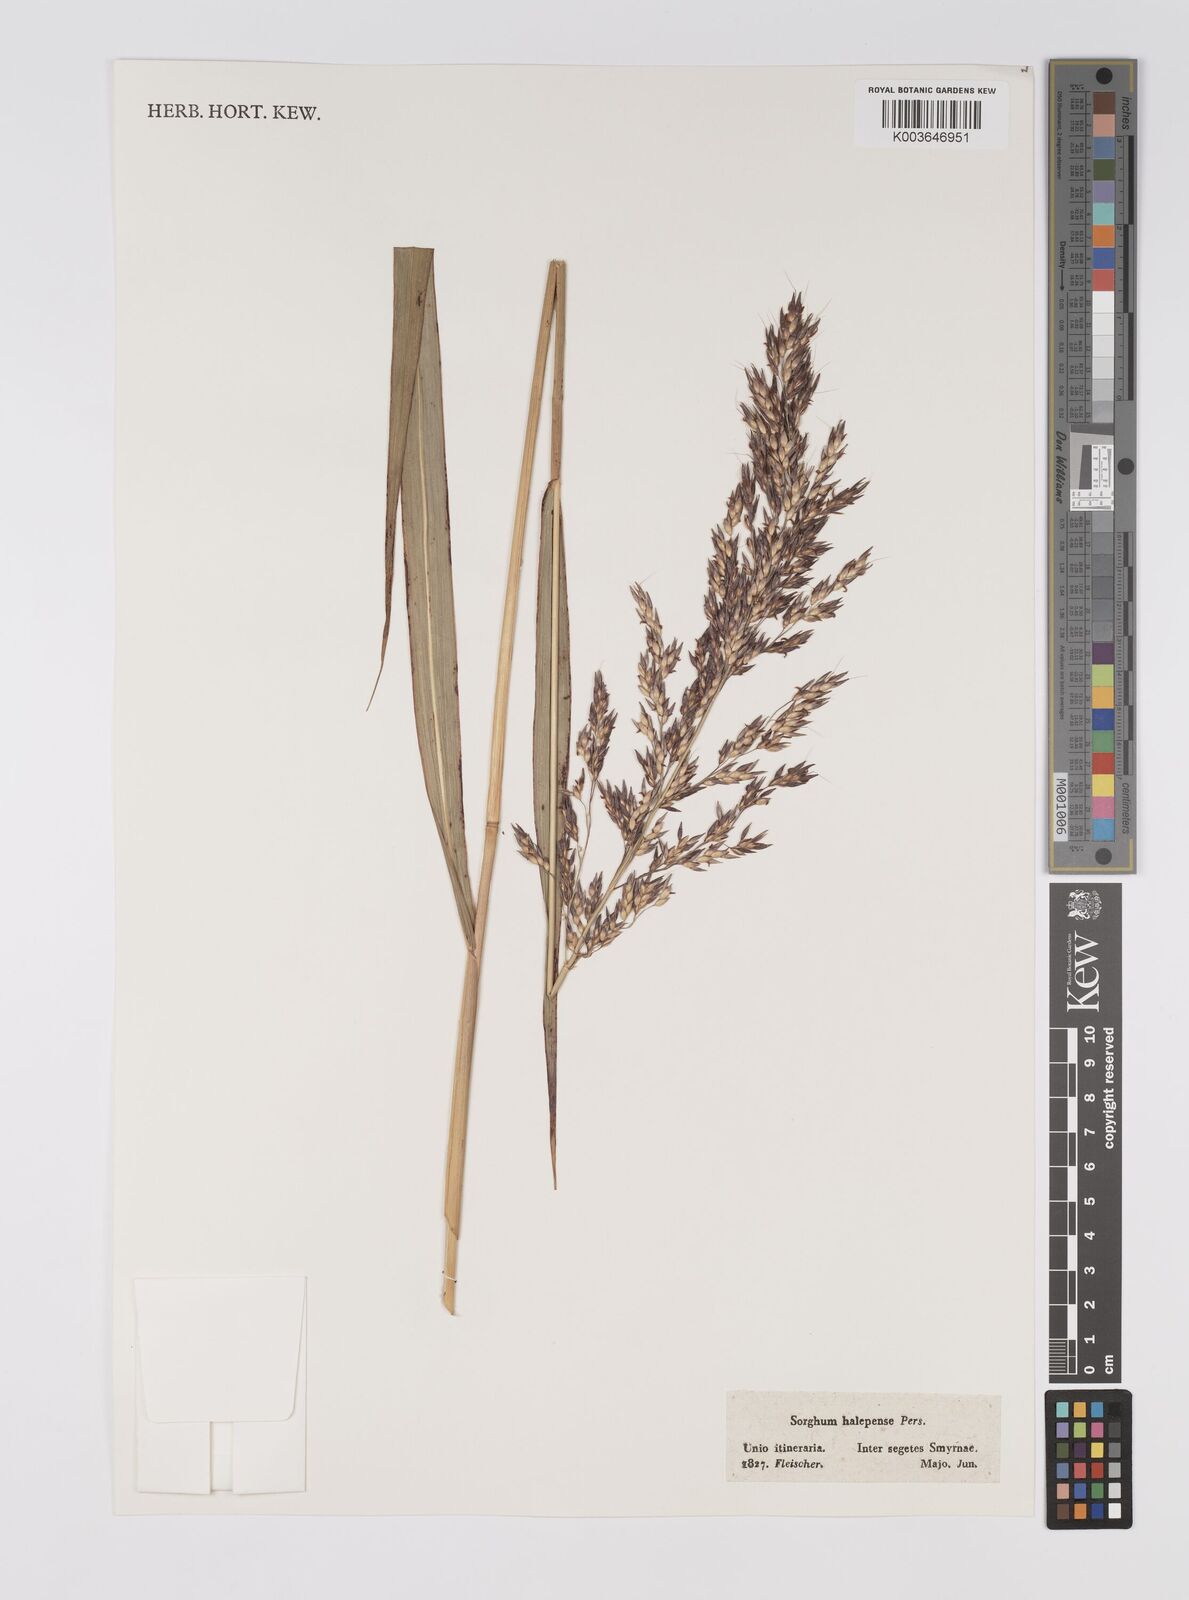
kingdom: Plantae
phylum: Tracheophyta
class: Liliopsida
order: Poales
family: Poaceae
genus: Sorghum
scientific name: Sorghum halepense
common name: Johnson-grass
